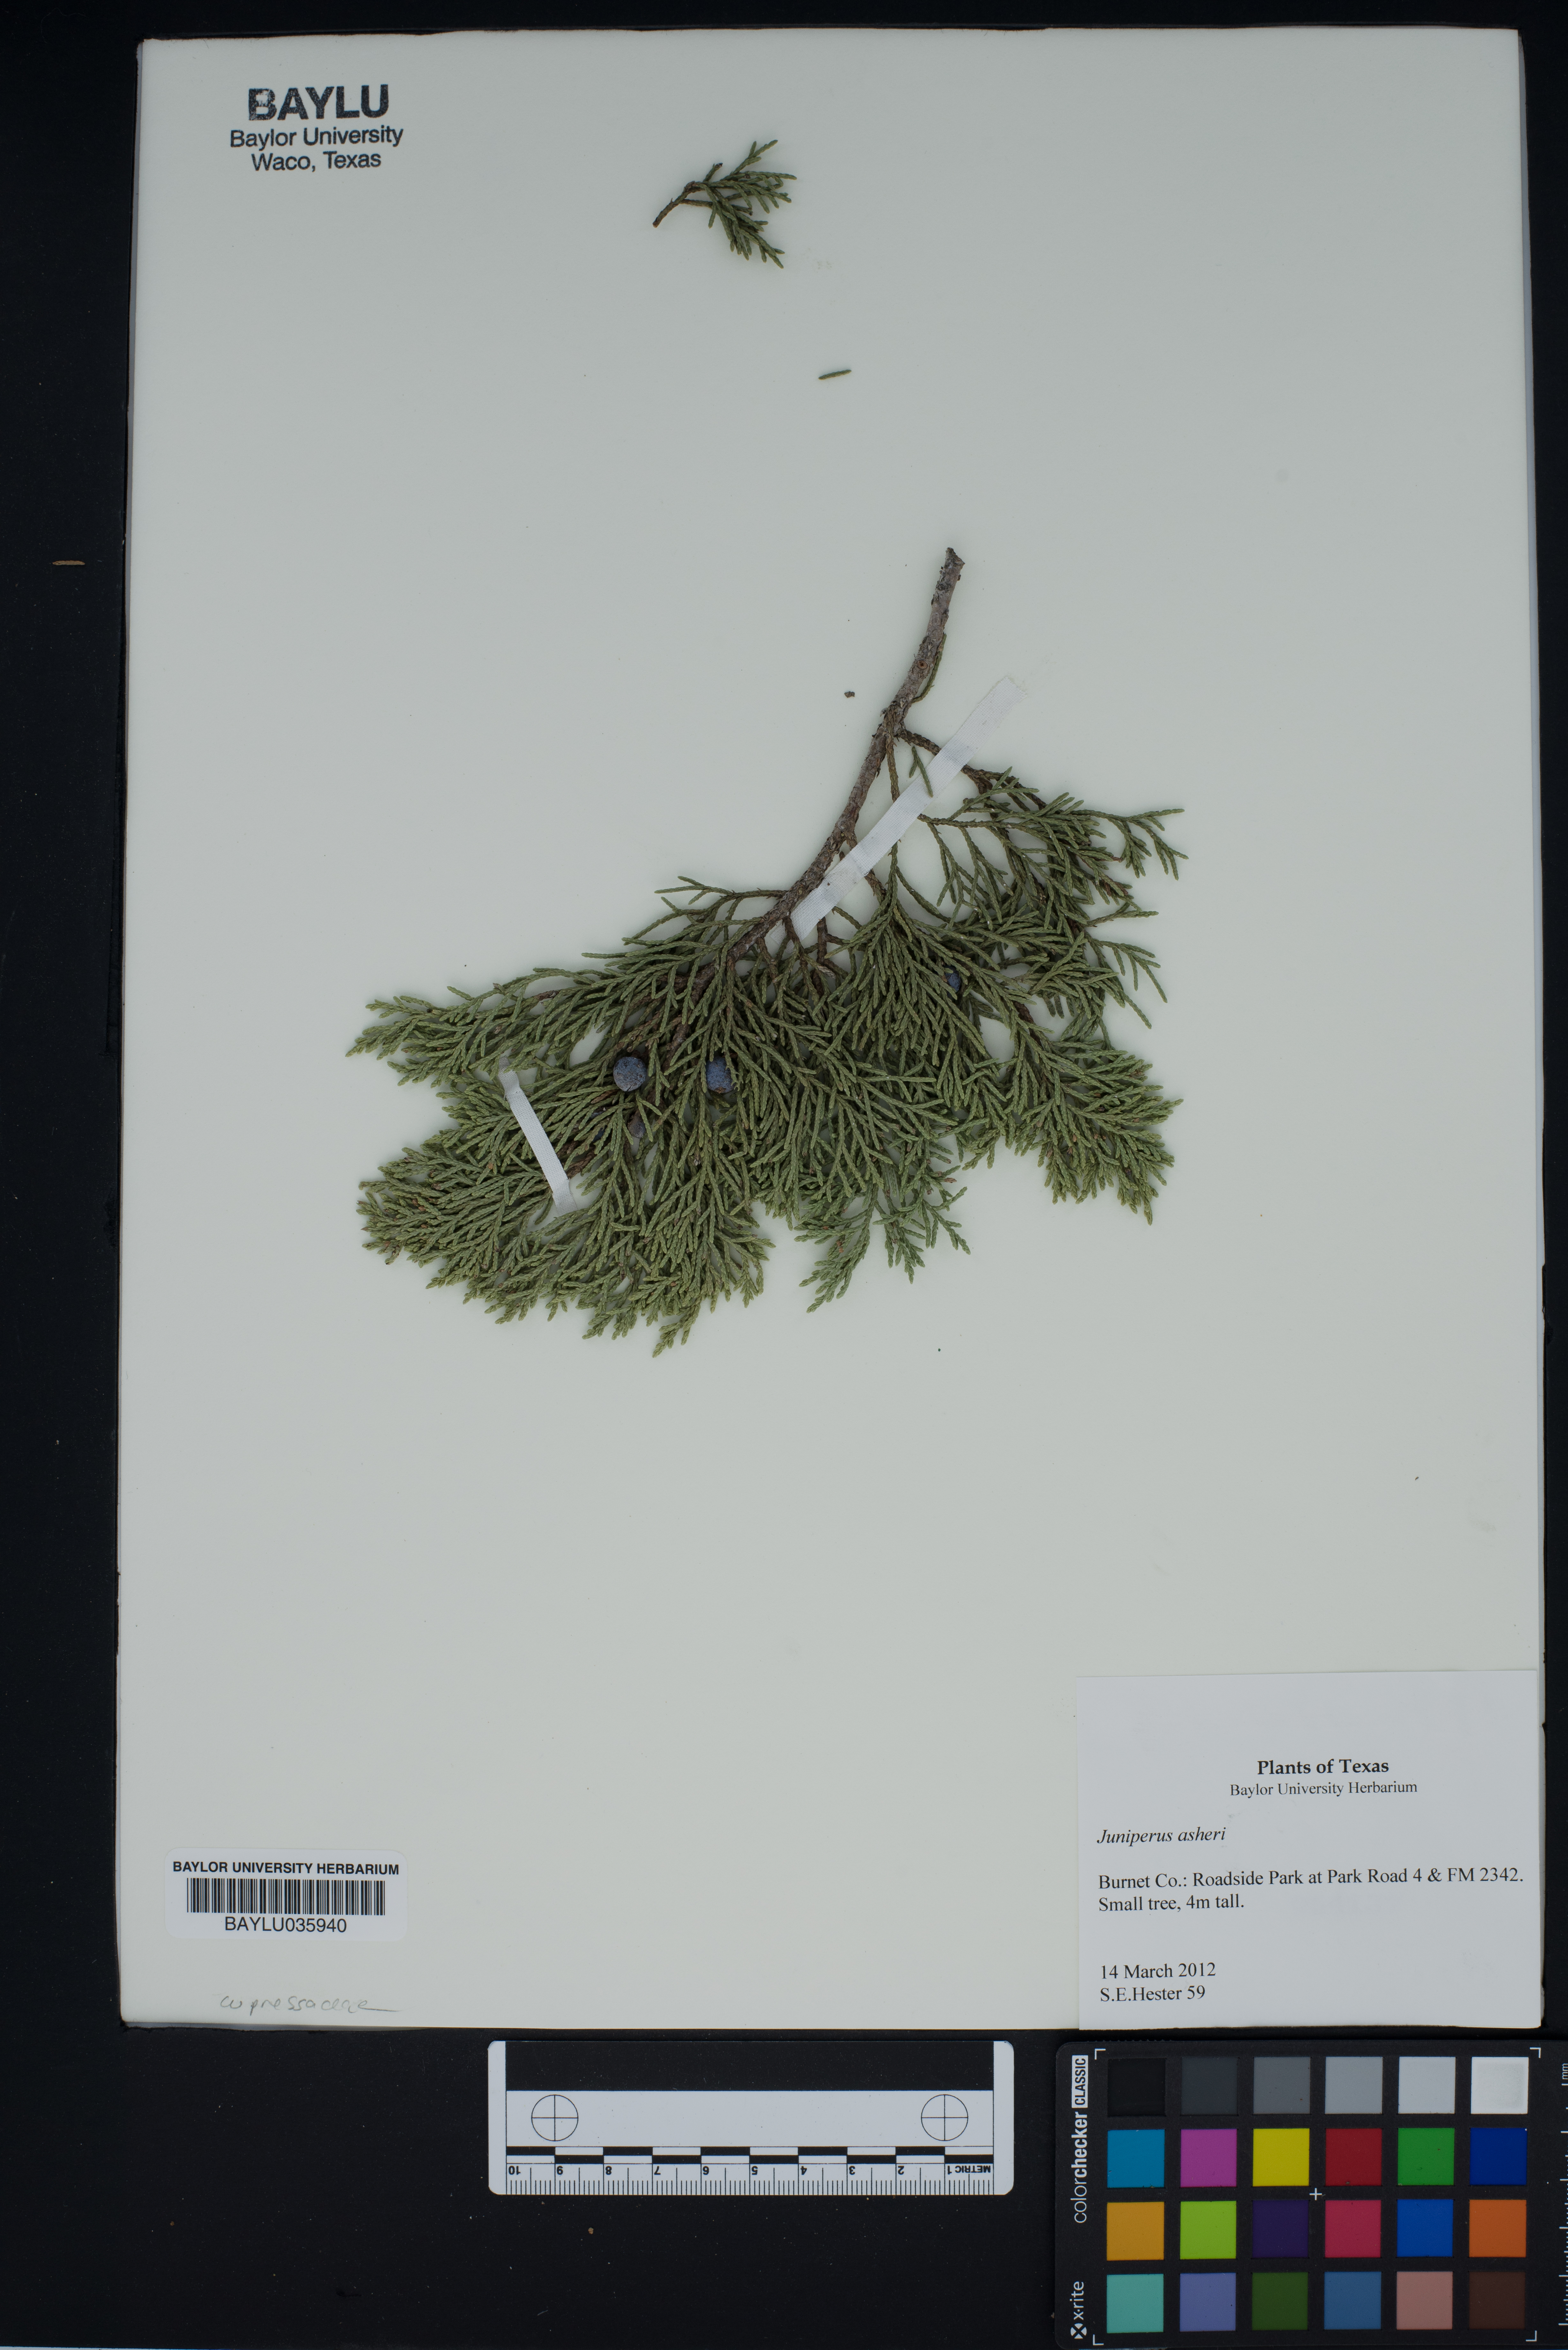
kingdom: Plantae
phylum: Tracheophyta
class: Pinopsida
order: Pinales
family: Cupressaceae
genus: Juniperus
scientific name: Juniperus ashei
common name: Mexican juniper
